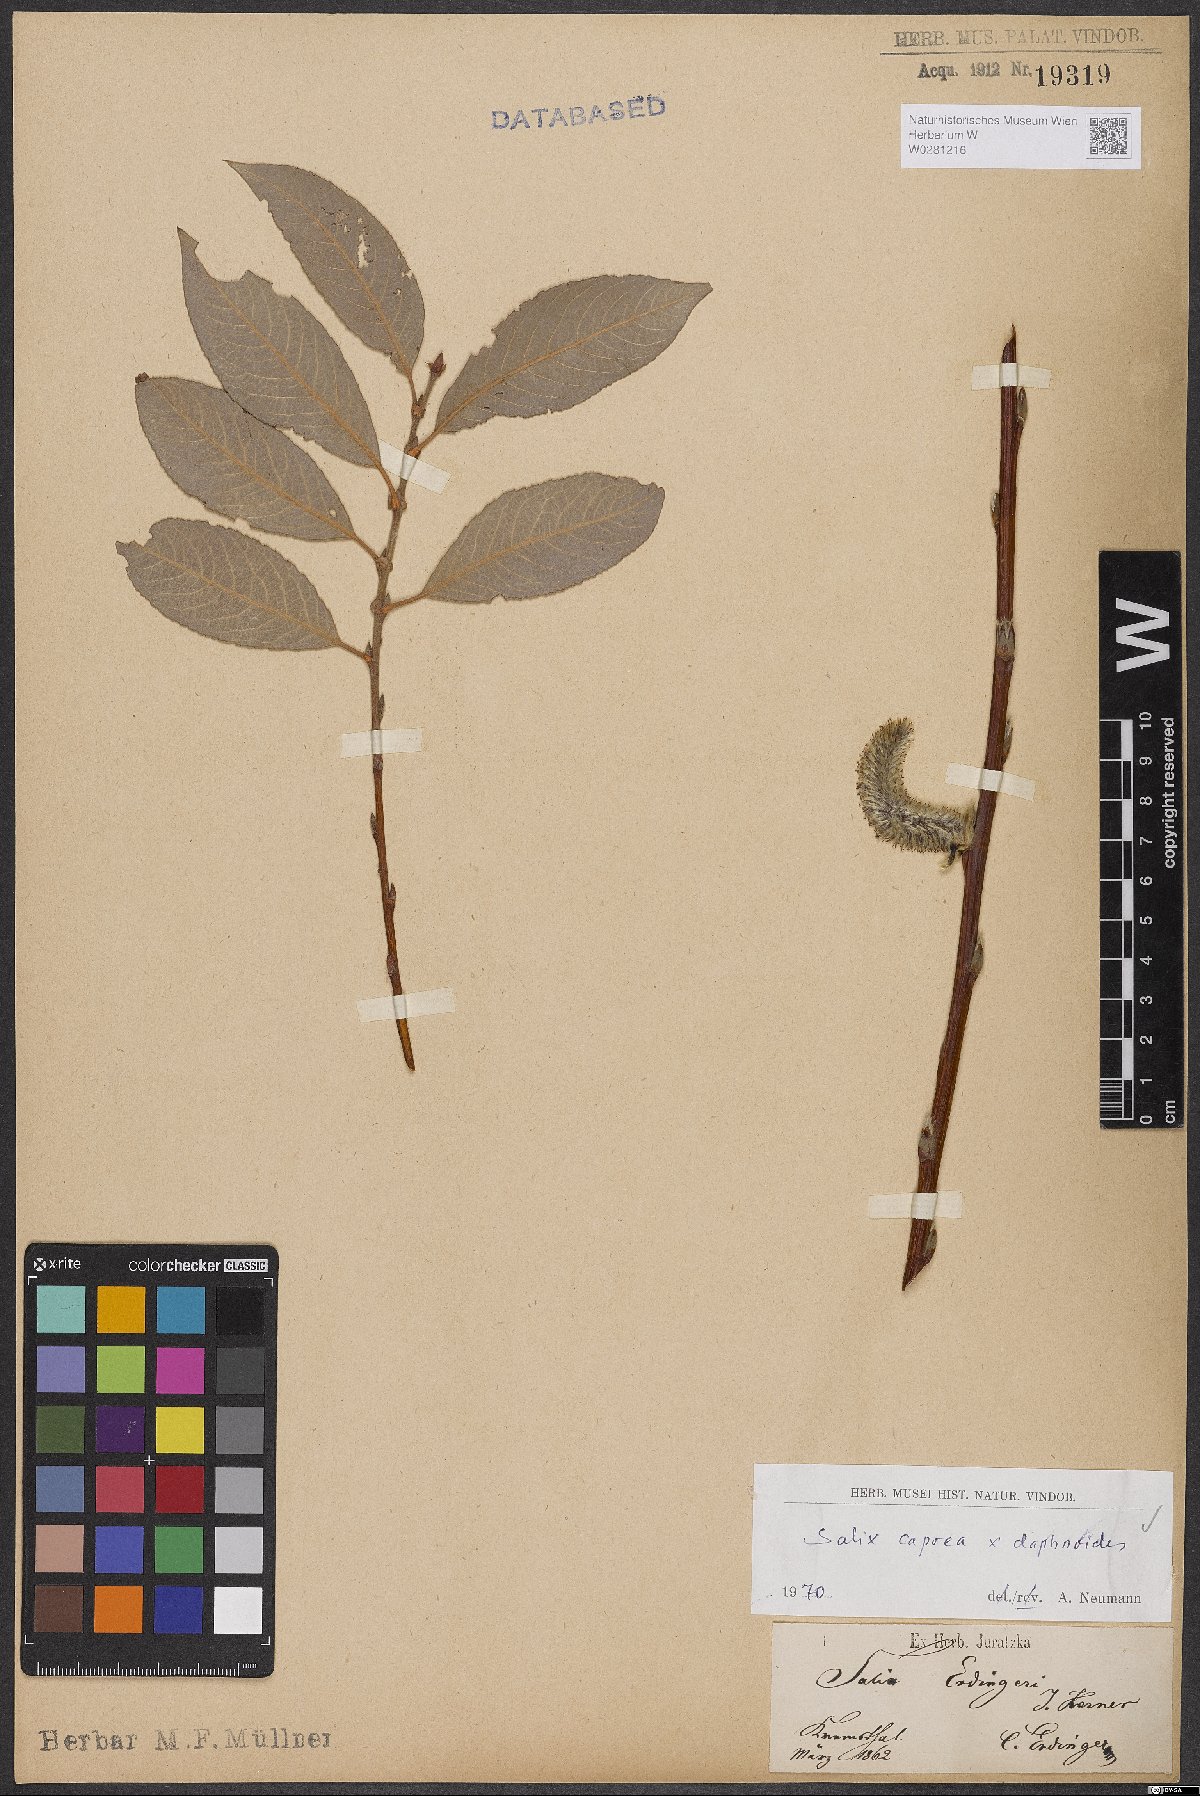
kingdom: Plantae
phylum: Tracheophyta
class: Magnoliopsida
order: Malpighiales
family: Salicaceae
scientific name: Salicaceae
